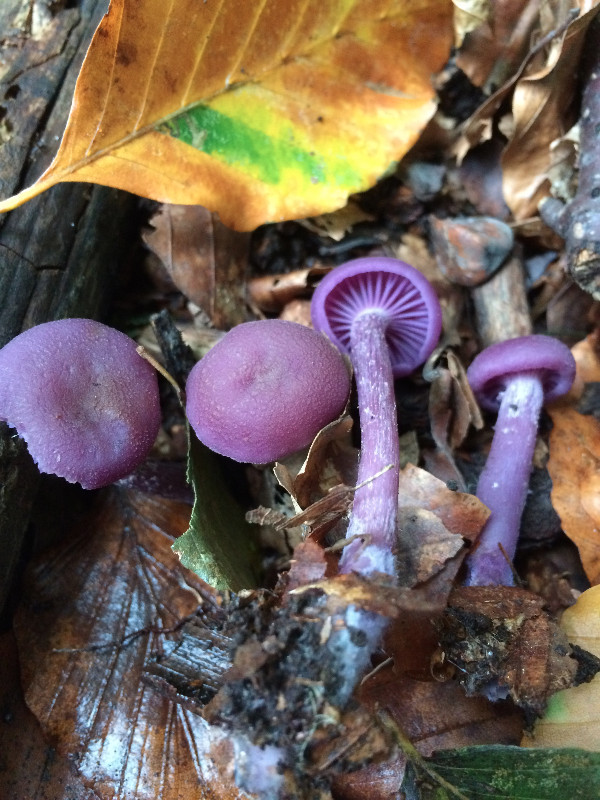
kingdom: Fungi
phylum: Basidiomycota
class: Agaricomycetes
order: Agaricales
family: Hydnangiaceae
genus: Laccaria
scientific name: Laccaria amethystina
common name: violet ametysthat
